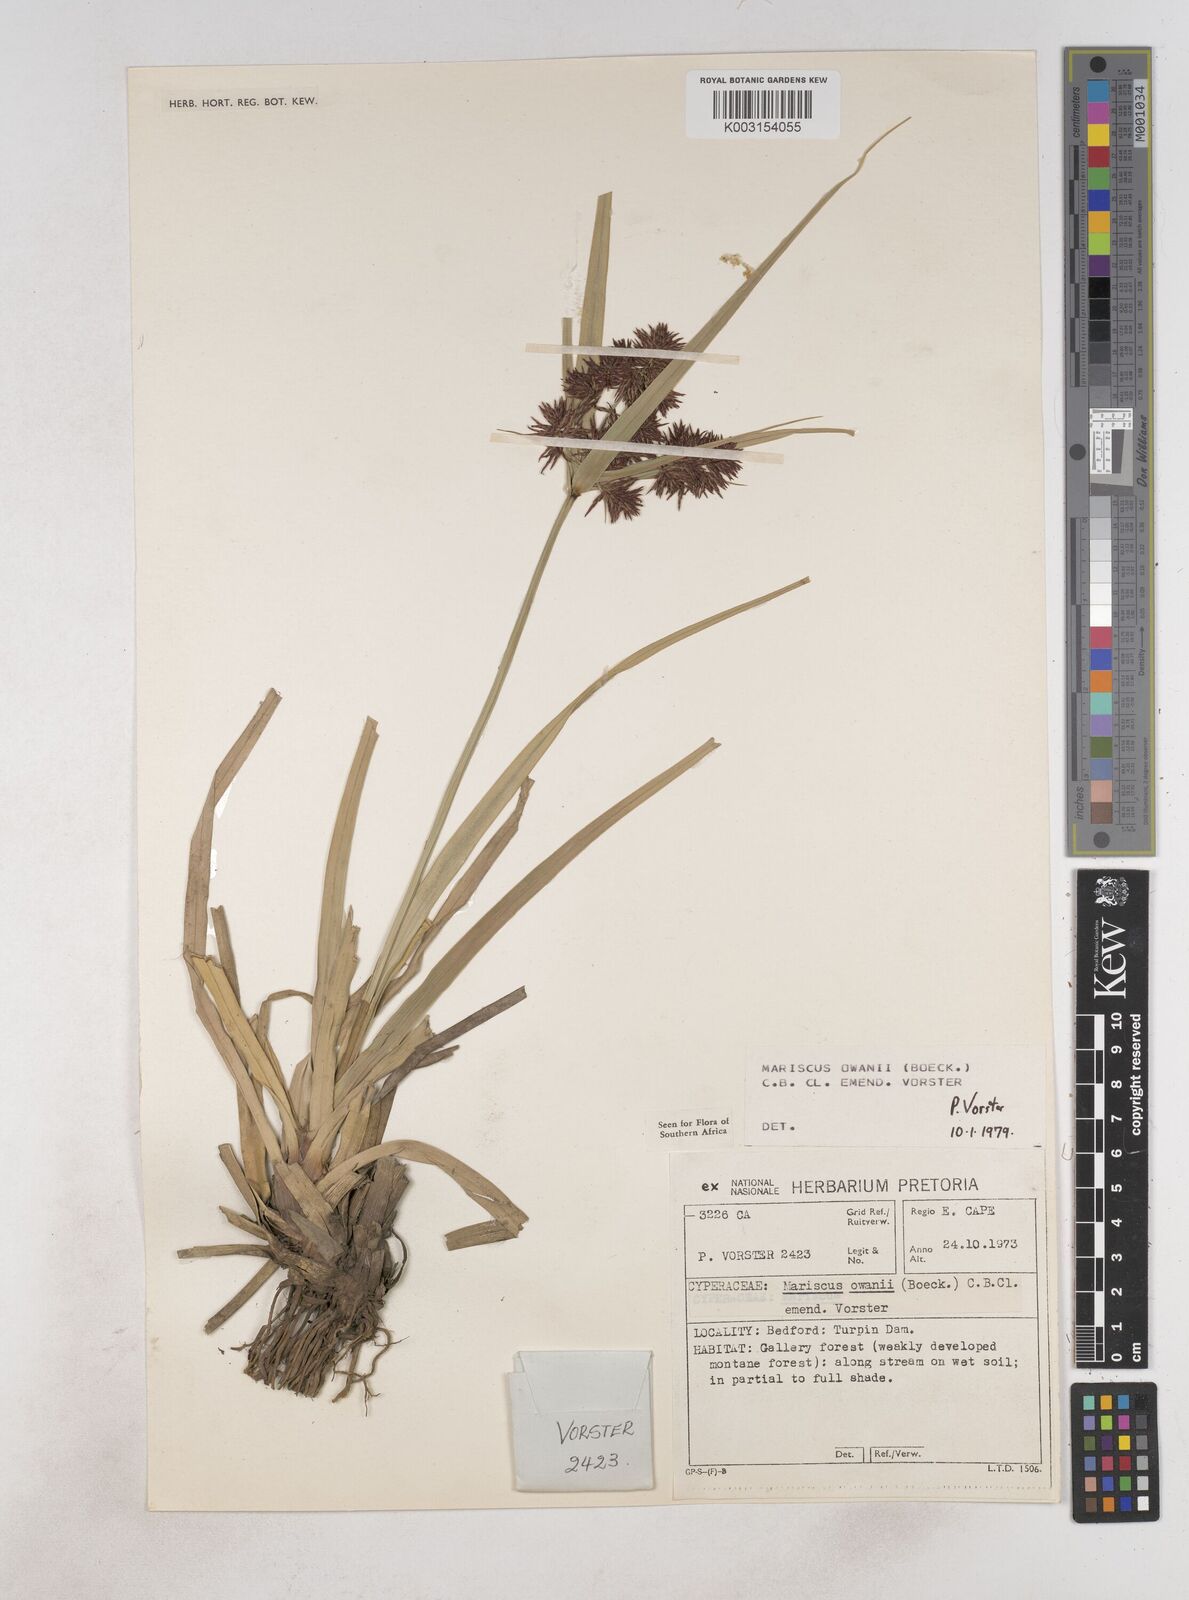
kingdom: Plantae
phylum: Tracheophyta
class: Liliopsida
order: Poales
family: Cyperaceae
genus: Cyperus
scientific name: Cyperus owanii
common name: Owan's flatsedge
